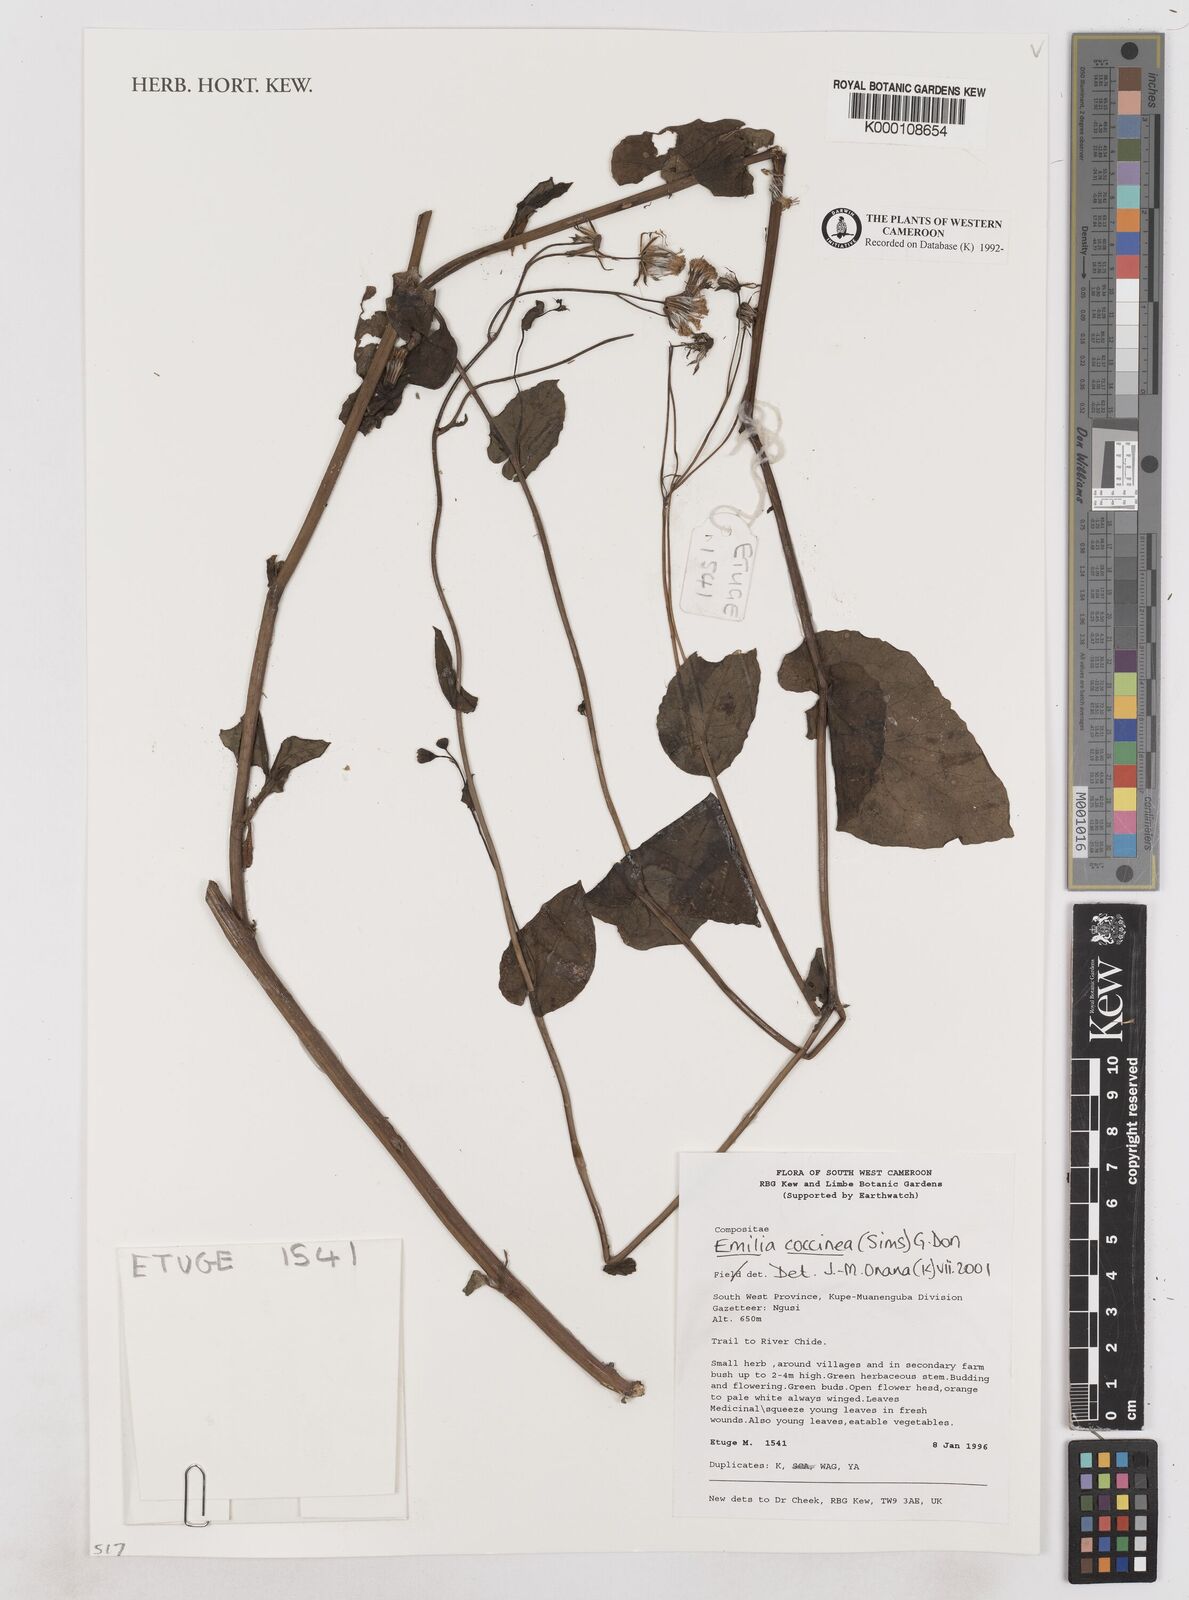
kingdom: Plantae
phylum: Tracheophyta
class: Magnoliopsida
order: Asterales
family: Asteraceae
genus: Emilia
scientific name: Emilia coccinea
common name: Scarlet tasselflower
